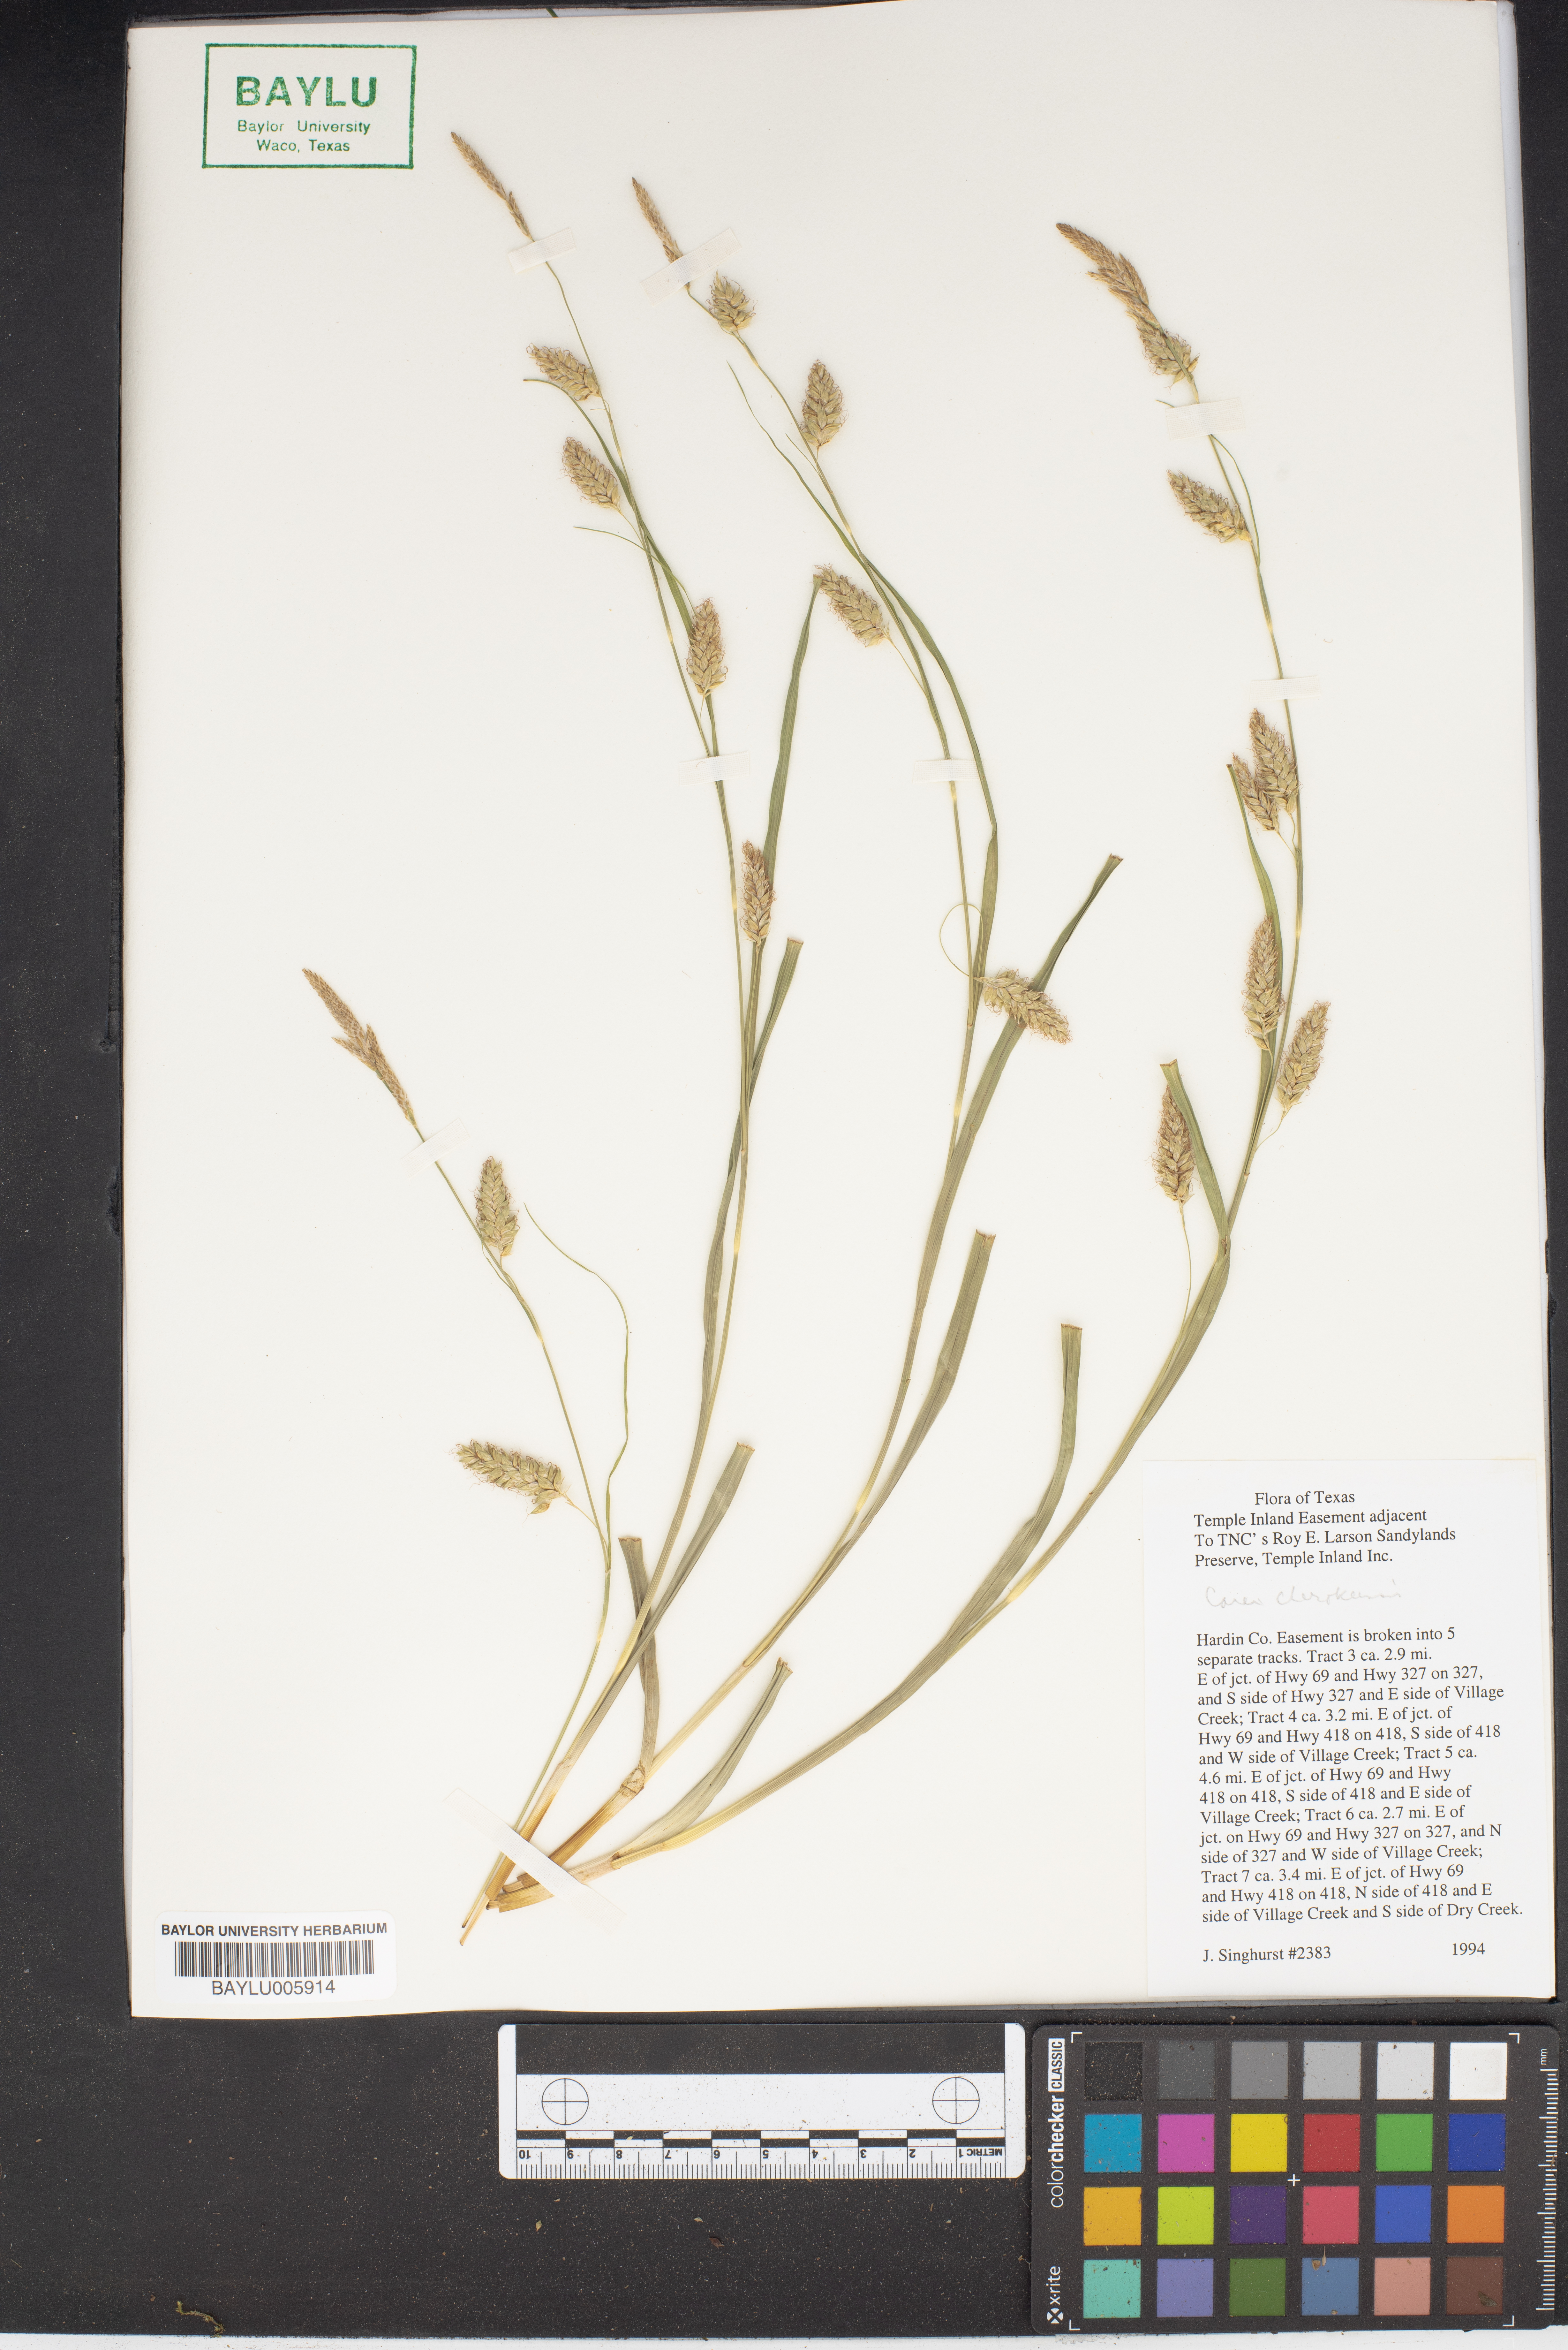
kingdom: Plantae
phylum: Tracheophyta
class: Liliopsida
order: Poales
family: Cyperaceae
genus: Carex
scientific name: Carex bicknellii
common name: Bicknell's sedge
